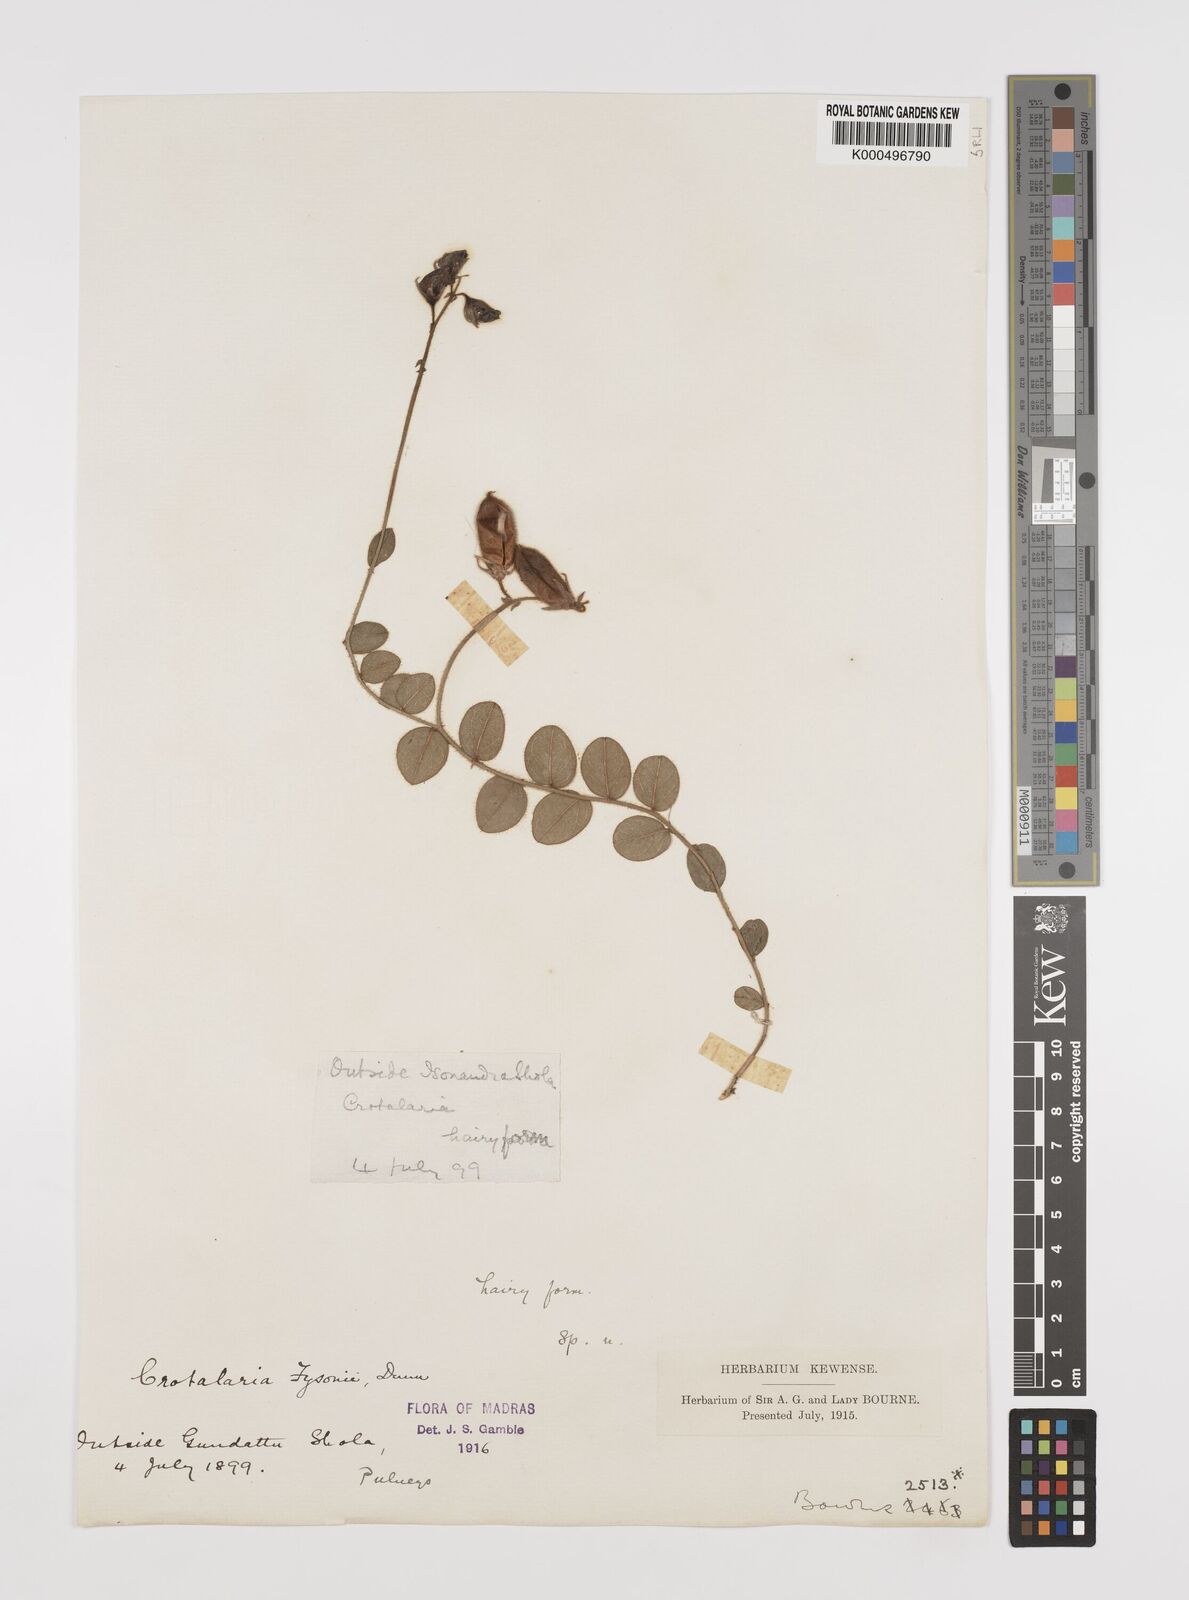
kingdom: Plantae
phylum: Tracheophyta
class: Magnoliopsida
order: Fabales
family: Fabaceae
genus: Crotalaria
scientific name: Crotalaria fysonii
